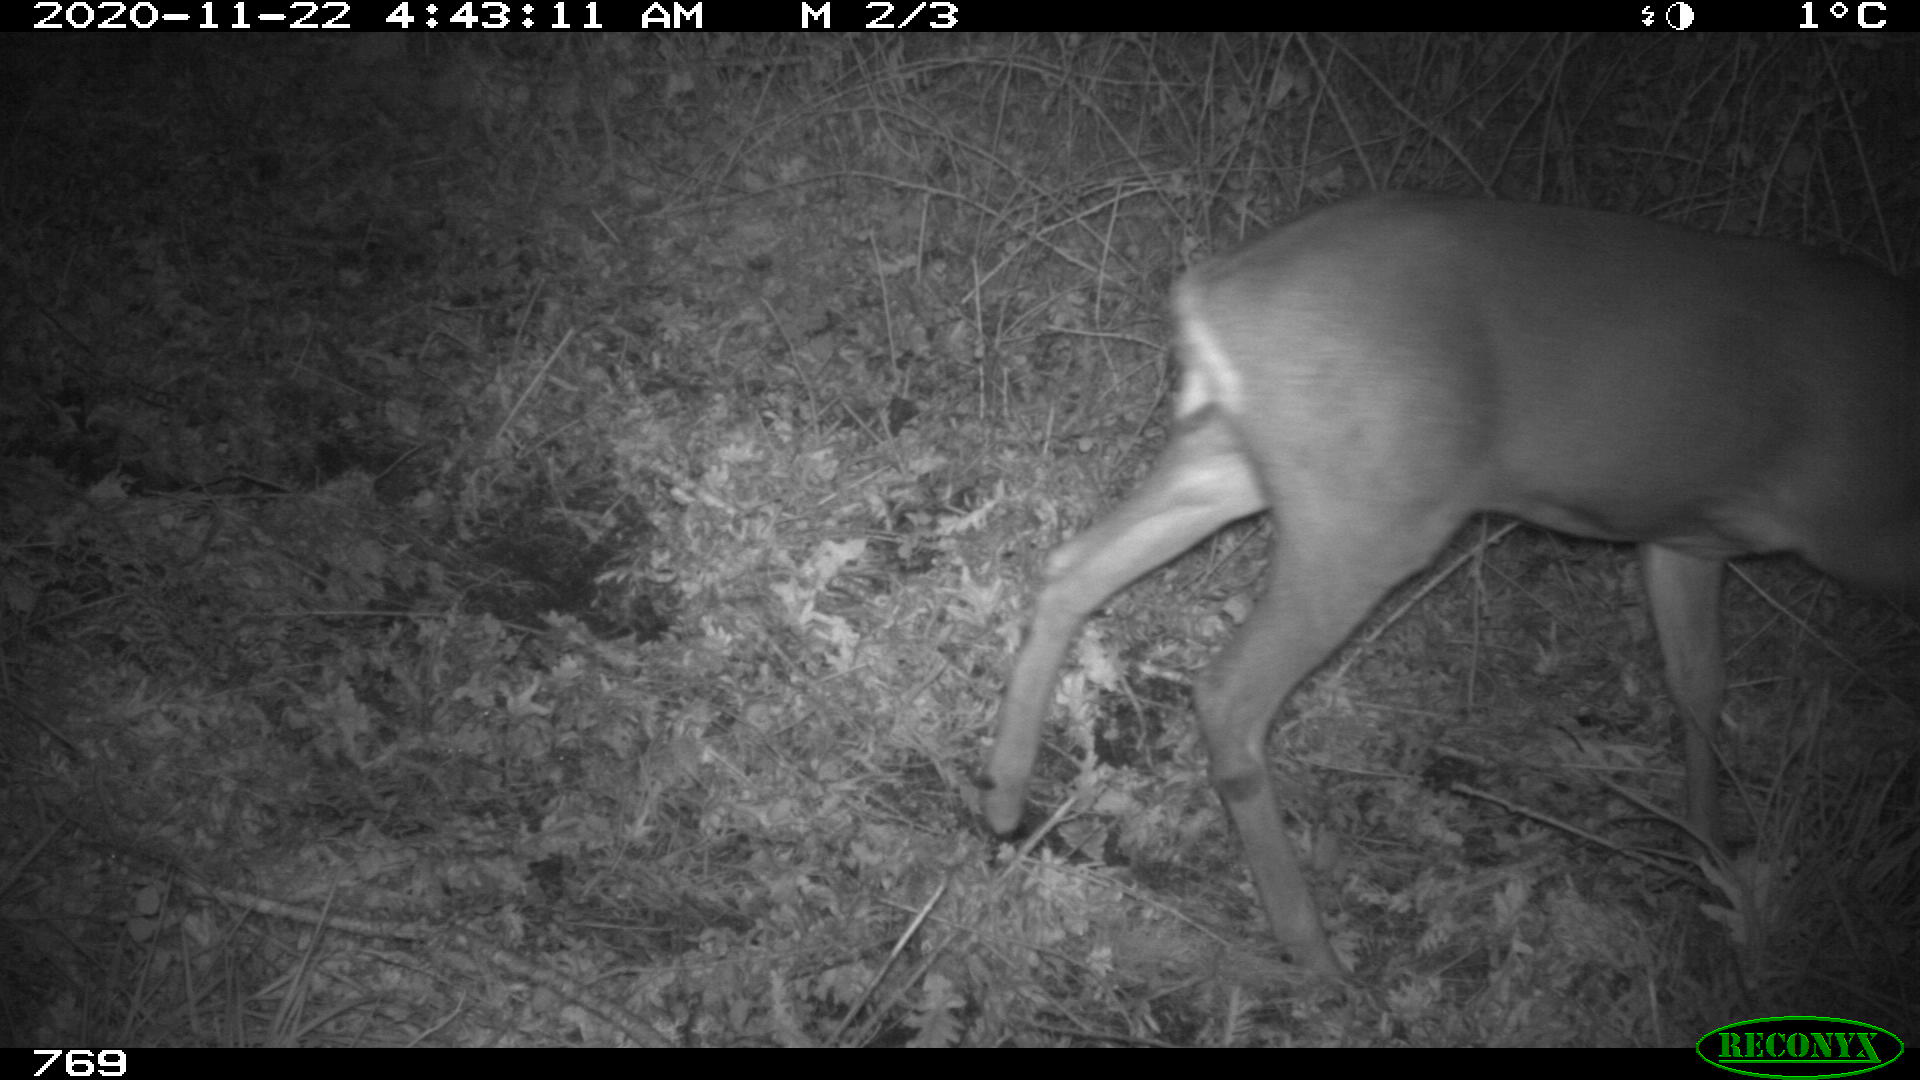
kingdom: Animalia
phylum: Chordata
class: Mammalia
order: Artiodactyla
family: Cervidae
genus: Capreolus
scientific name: Capreolus capreolus
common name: Western roe deer
